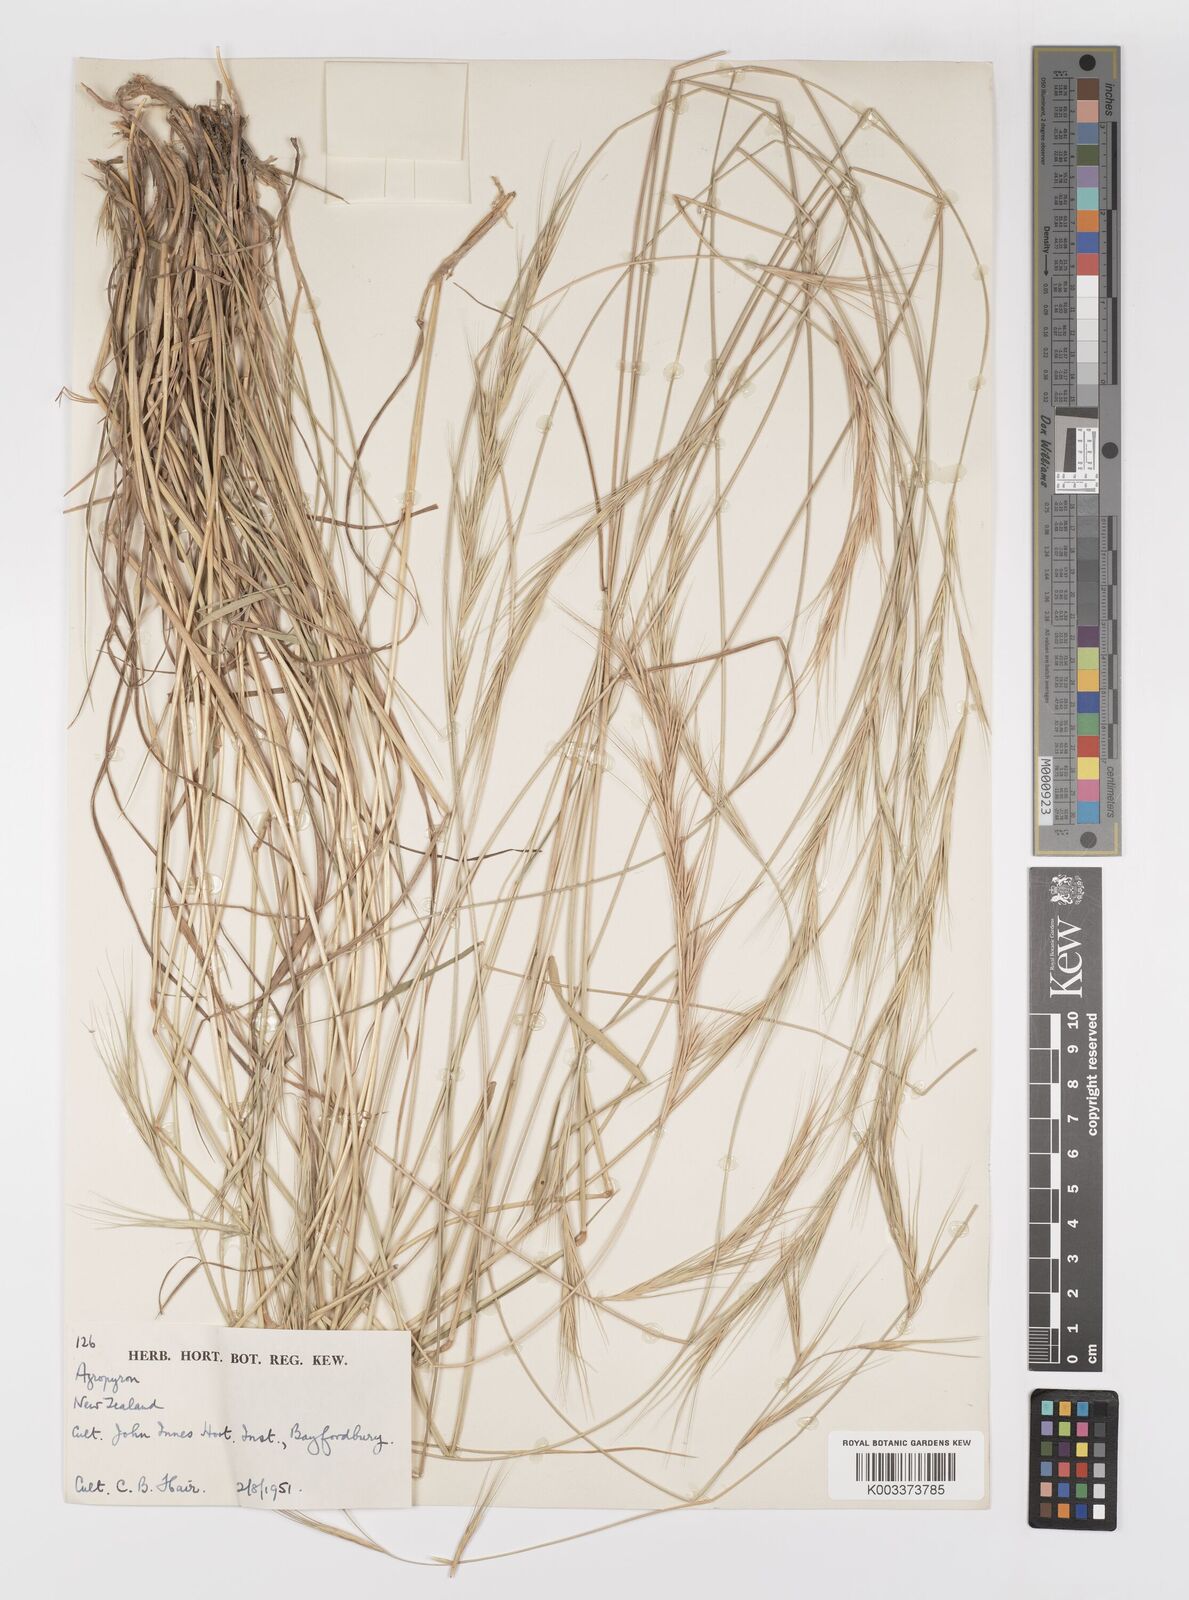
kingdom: Plantae
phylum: Tracheophyta
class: Liliopsida
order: Poales
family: Poaceae
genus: Elymus
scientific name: Elymus
